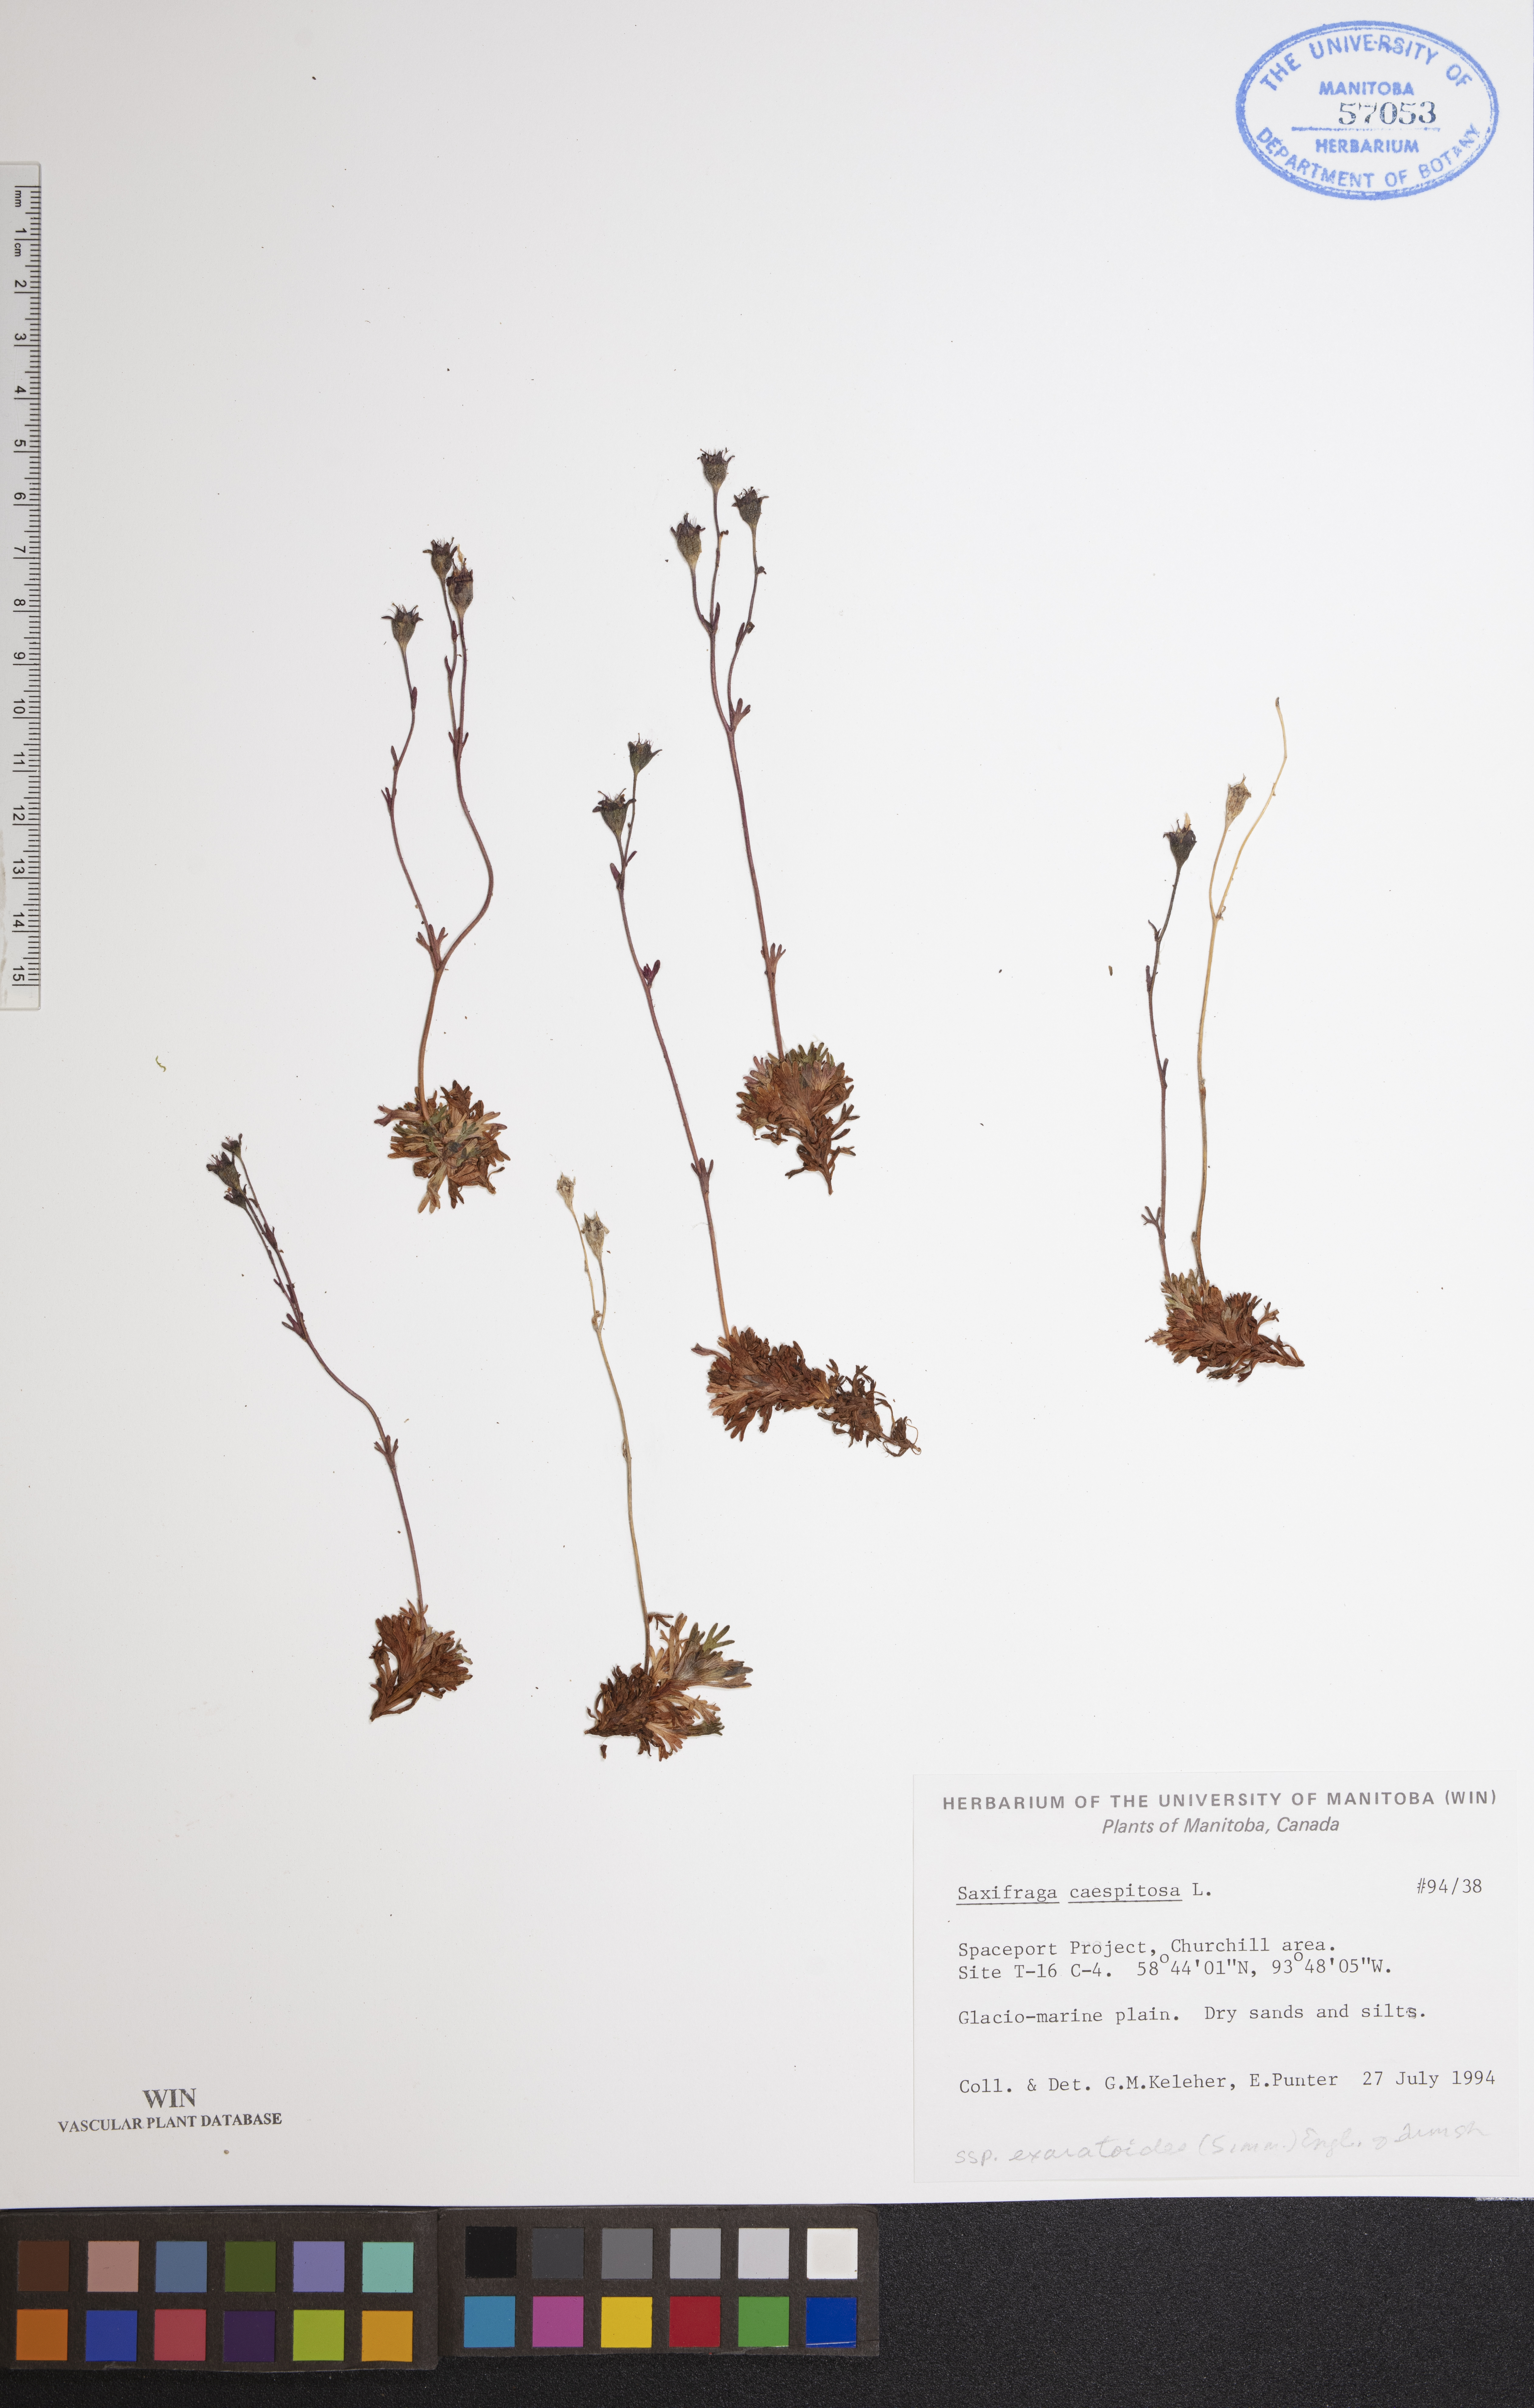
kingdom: Plantae
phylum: Tracheophyta
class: Magnoliopsida
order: Saxifragales
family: Saxifragaceae
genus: Saxifraga
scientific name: Saxifraga cespitosa
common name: Tufted saxifrage
